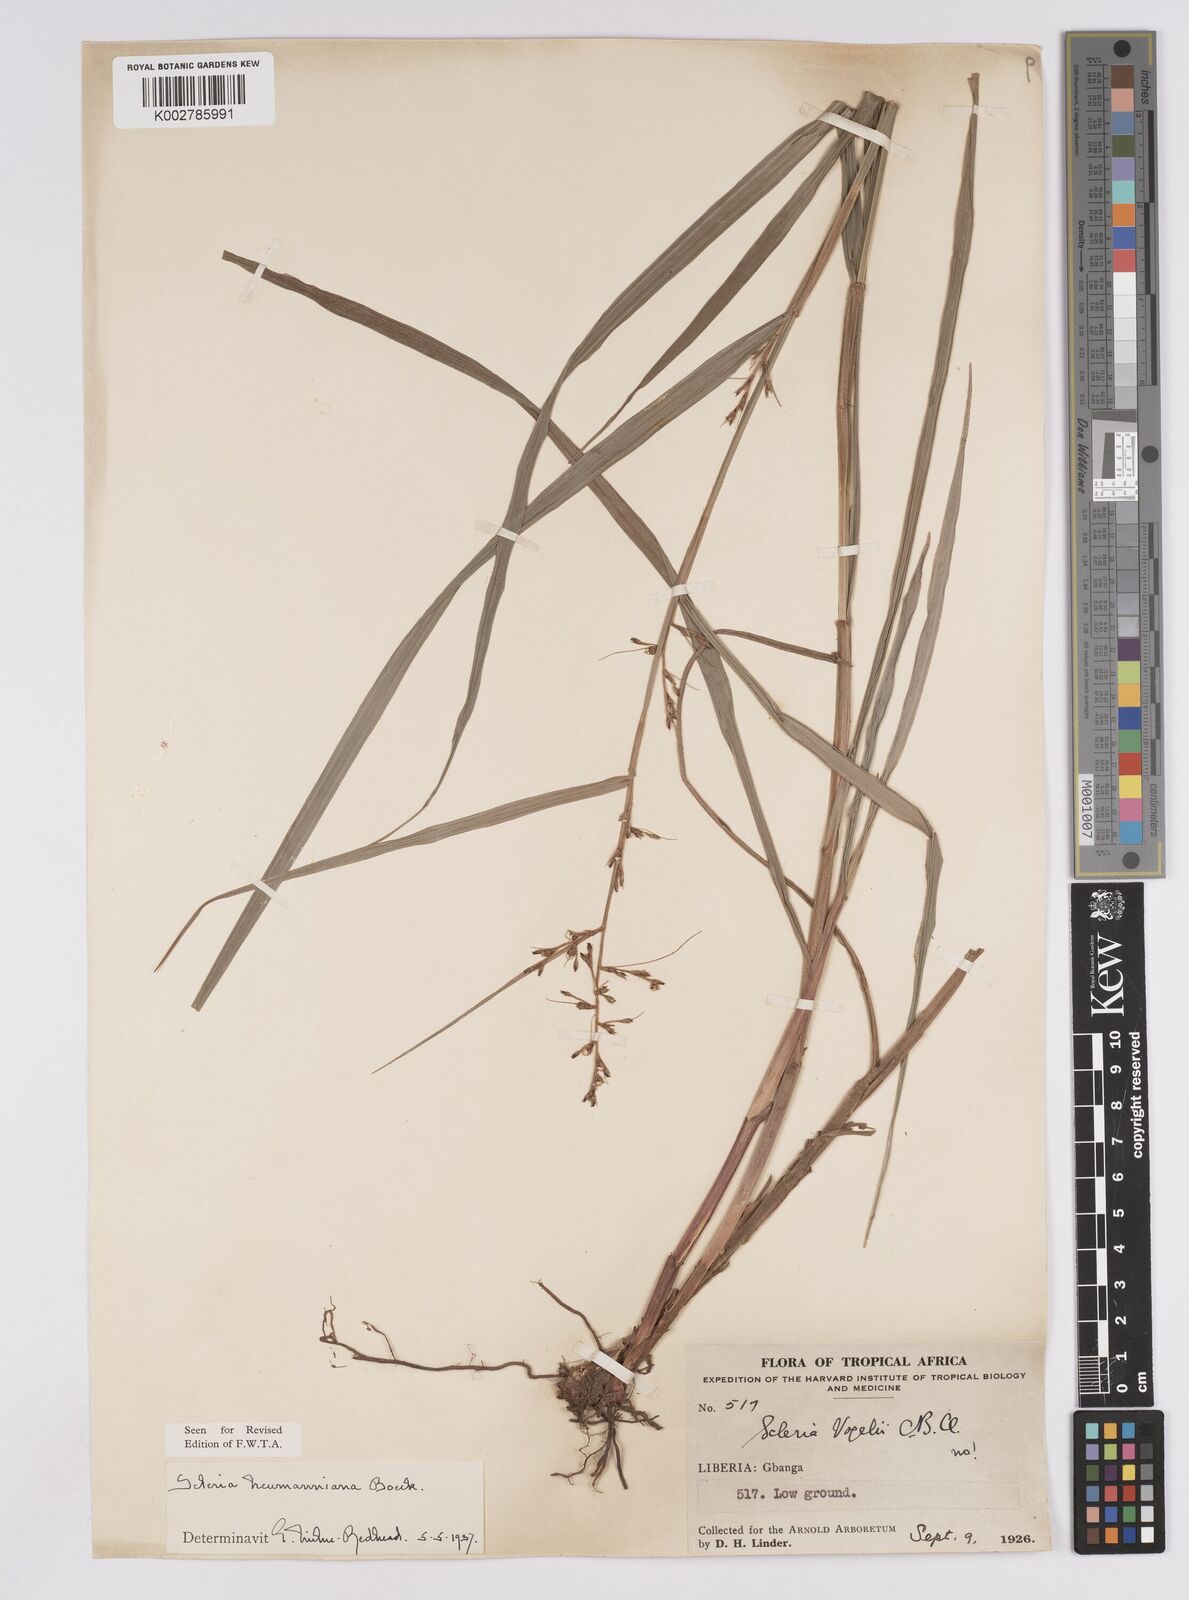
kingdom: Plantae
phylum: Tracheophyta
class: Liliopsida
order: Poales
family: Cyperaceae
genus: Scleria
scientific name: Scleria naumanniana
